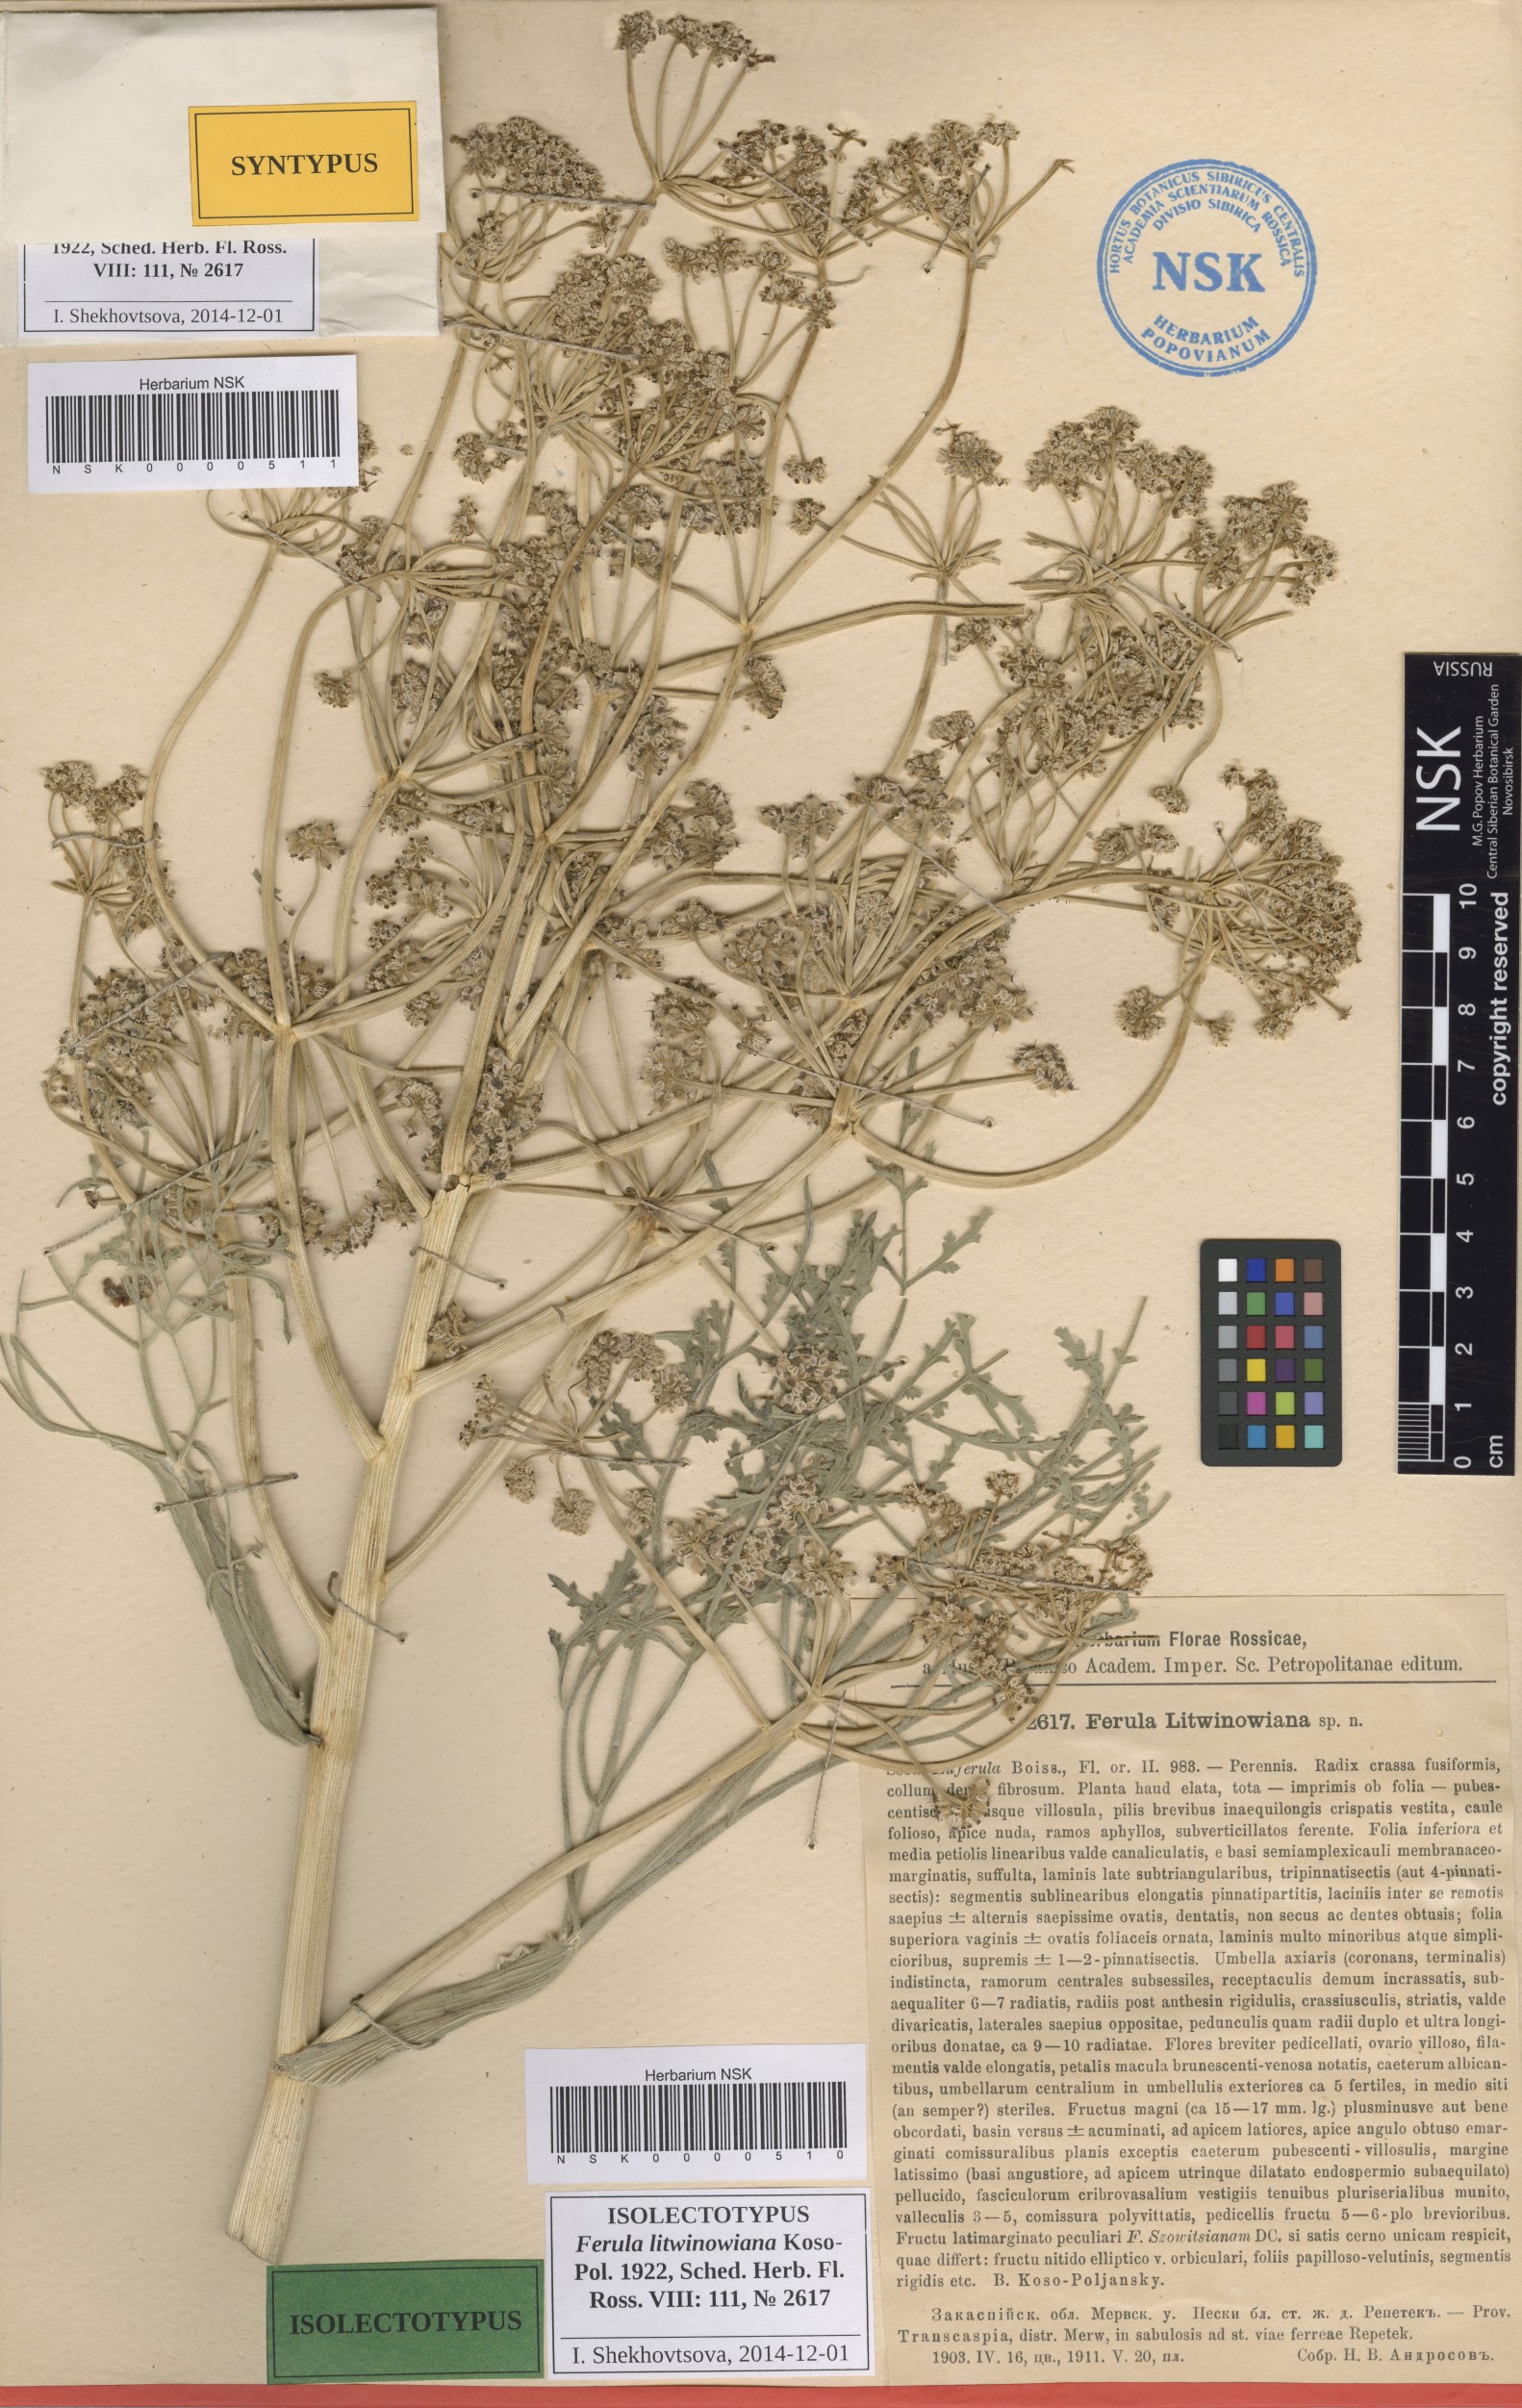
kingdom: Plantae
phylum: Tracheophyta
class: Magnoliopsida
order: Apiales
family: Apiaceae
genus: Ferula
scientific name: Ferula litwinowiana
